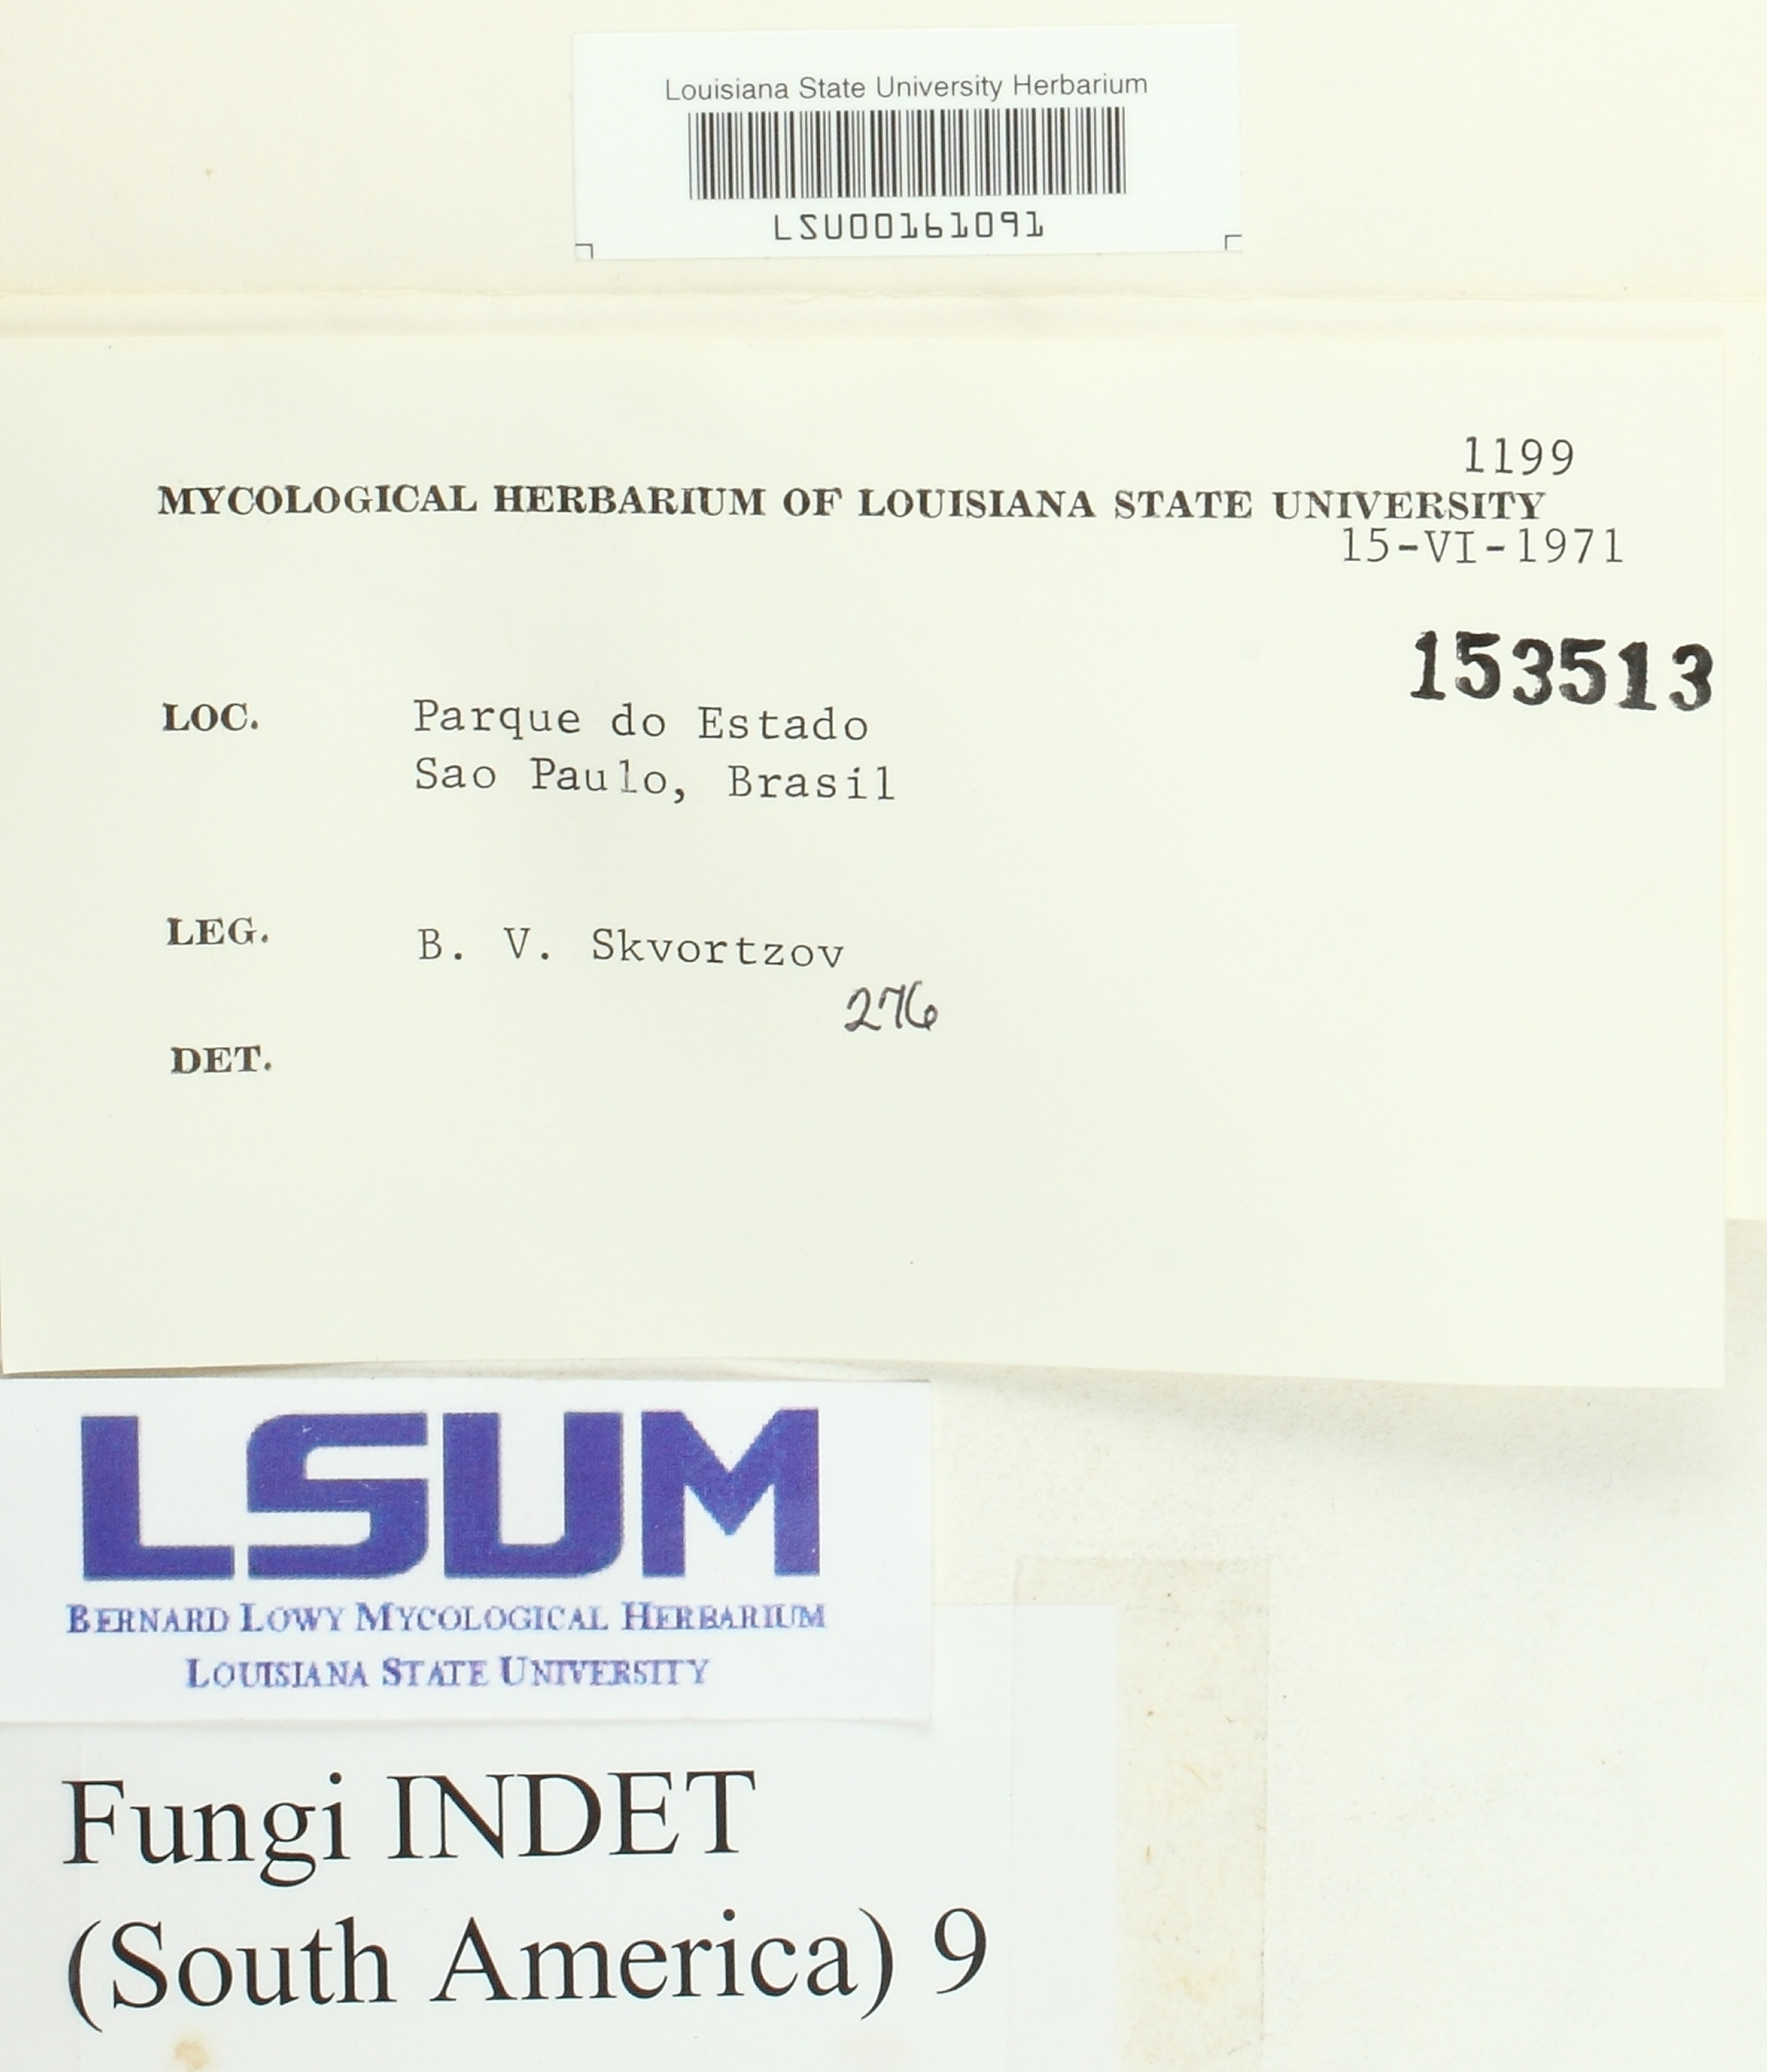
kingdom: Fungi
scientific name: Fungi
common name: Fungi
